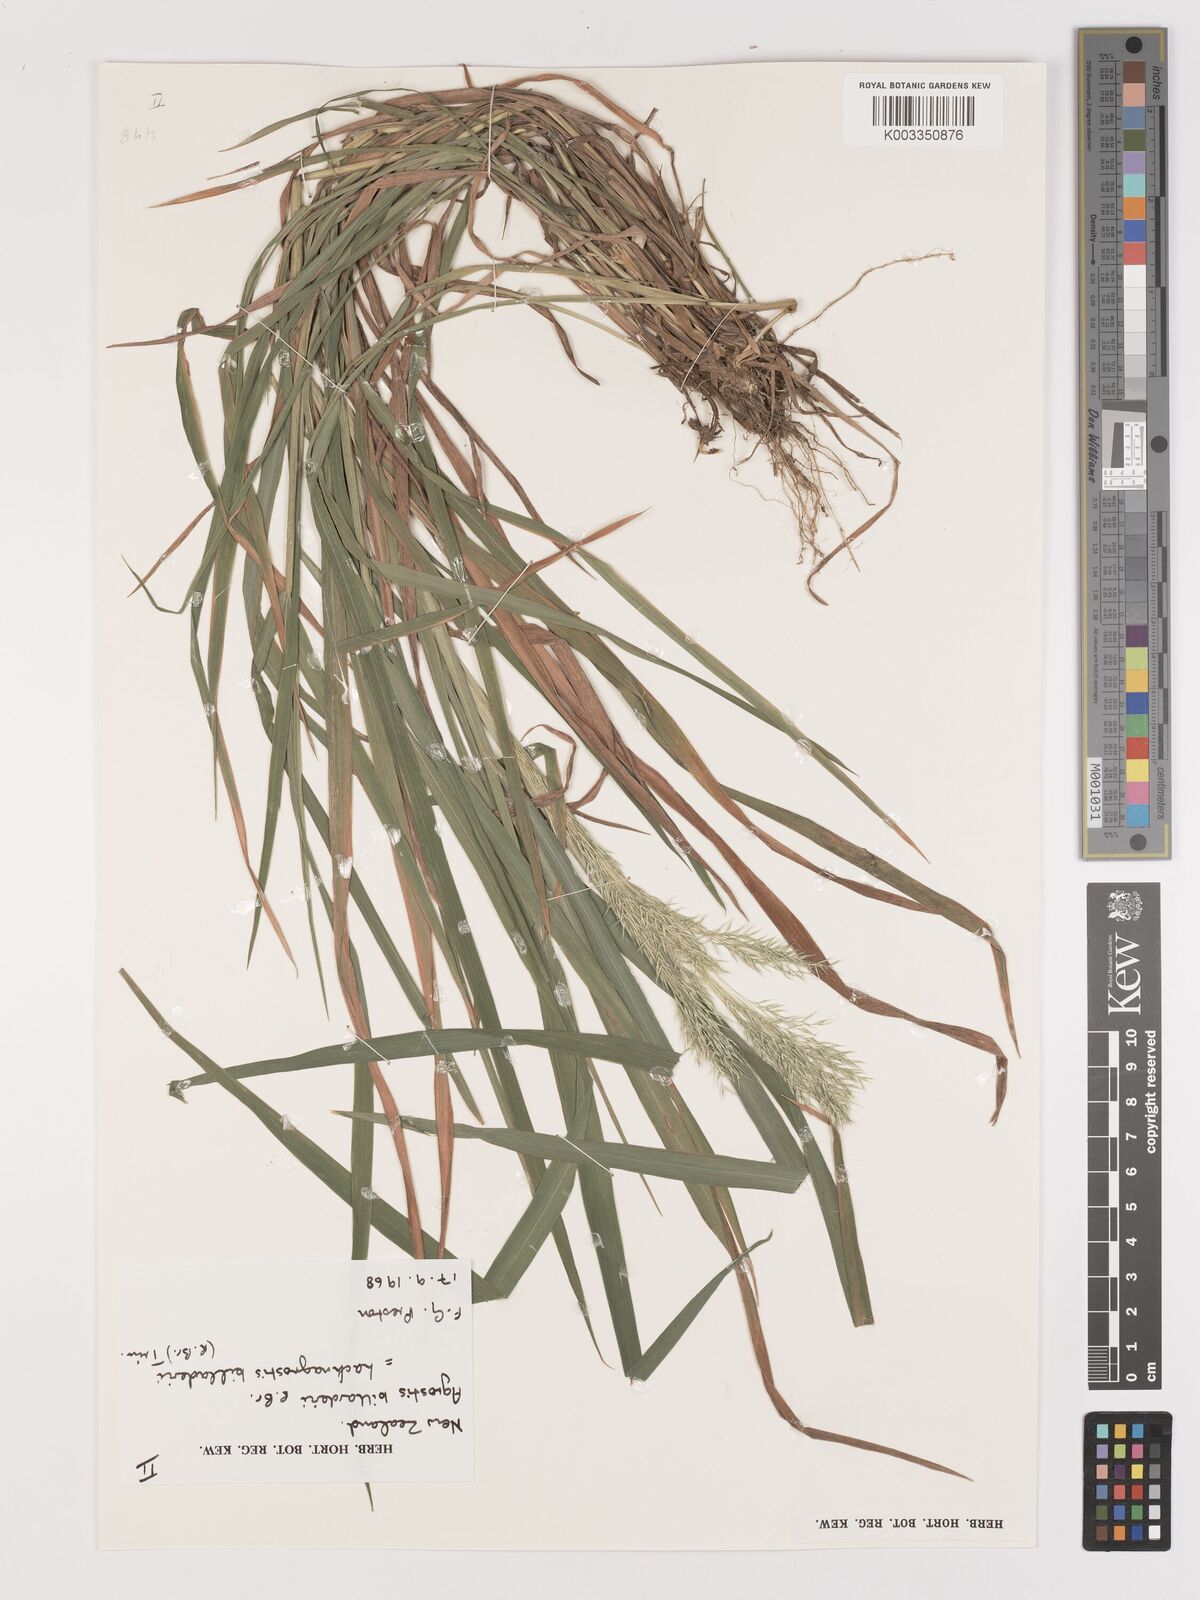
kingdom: Plantae
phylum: Tracheophyta
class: Liliopsida
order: Poales
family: Poaceae
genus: Lachnagrostis
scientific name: Lachnagrostis billardierei
